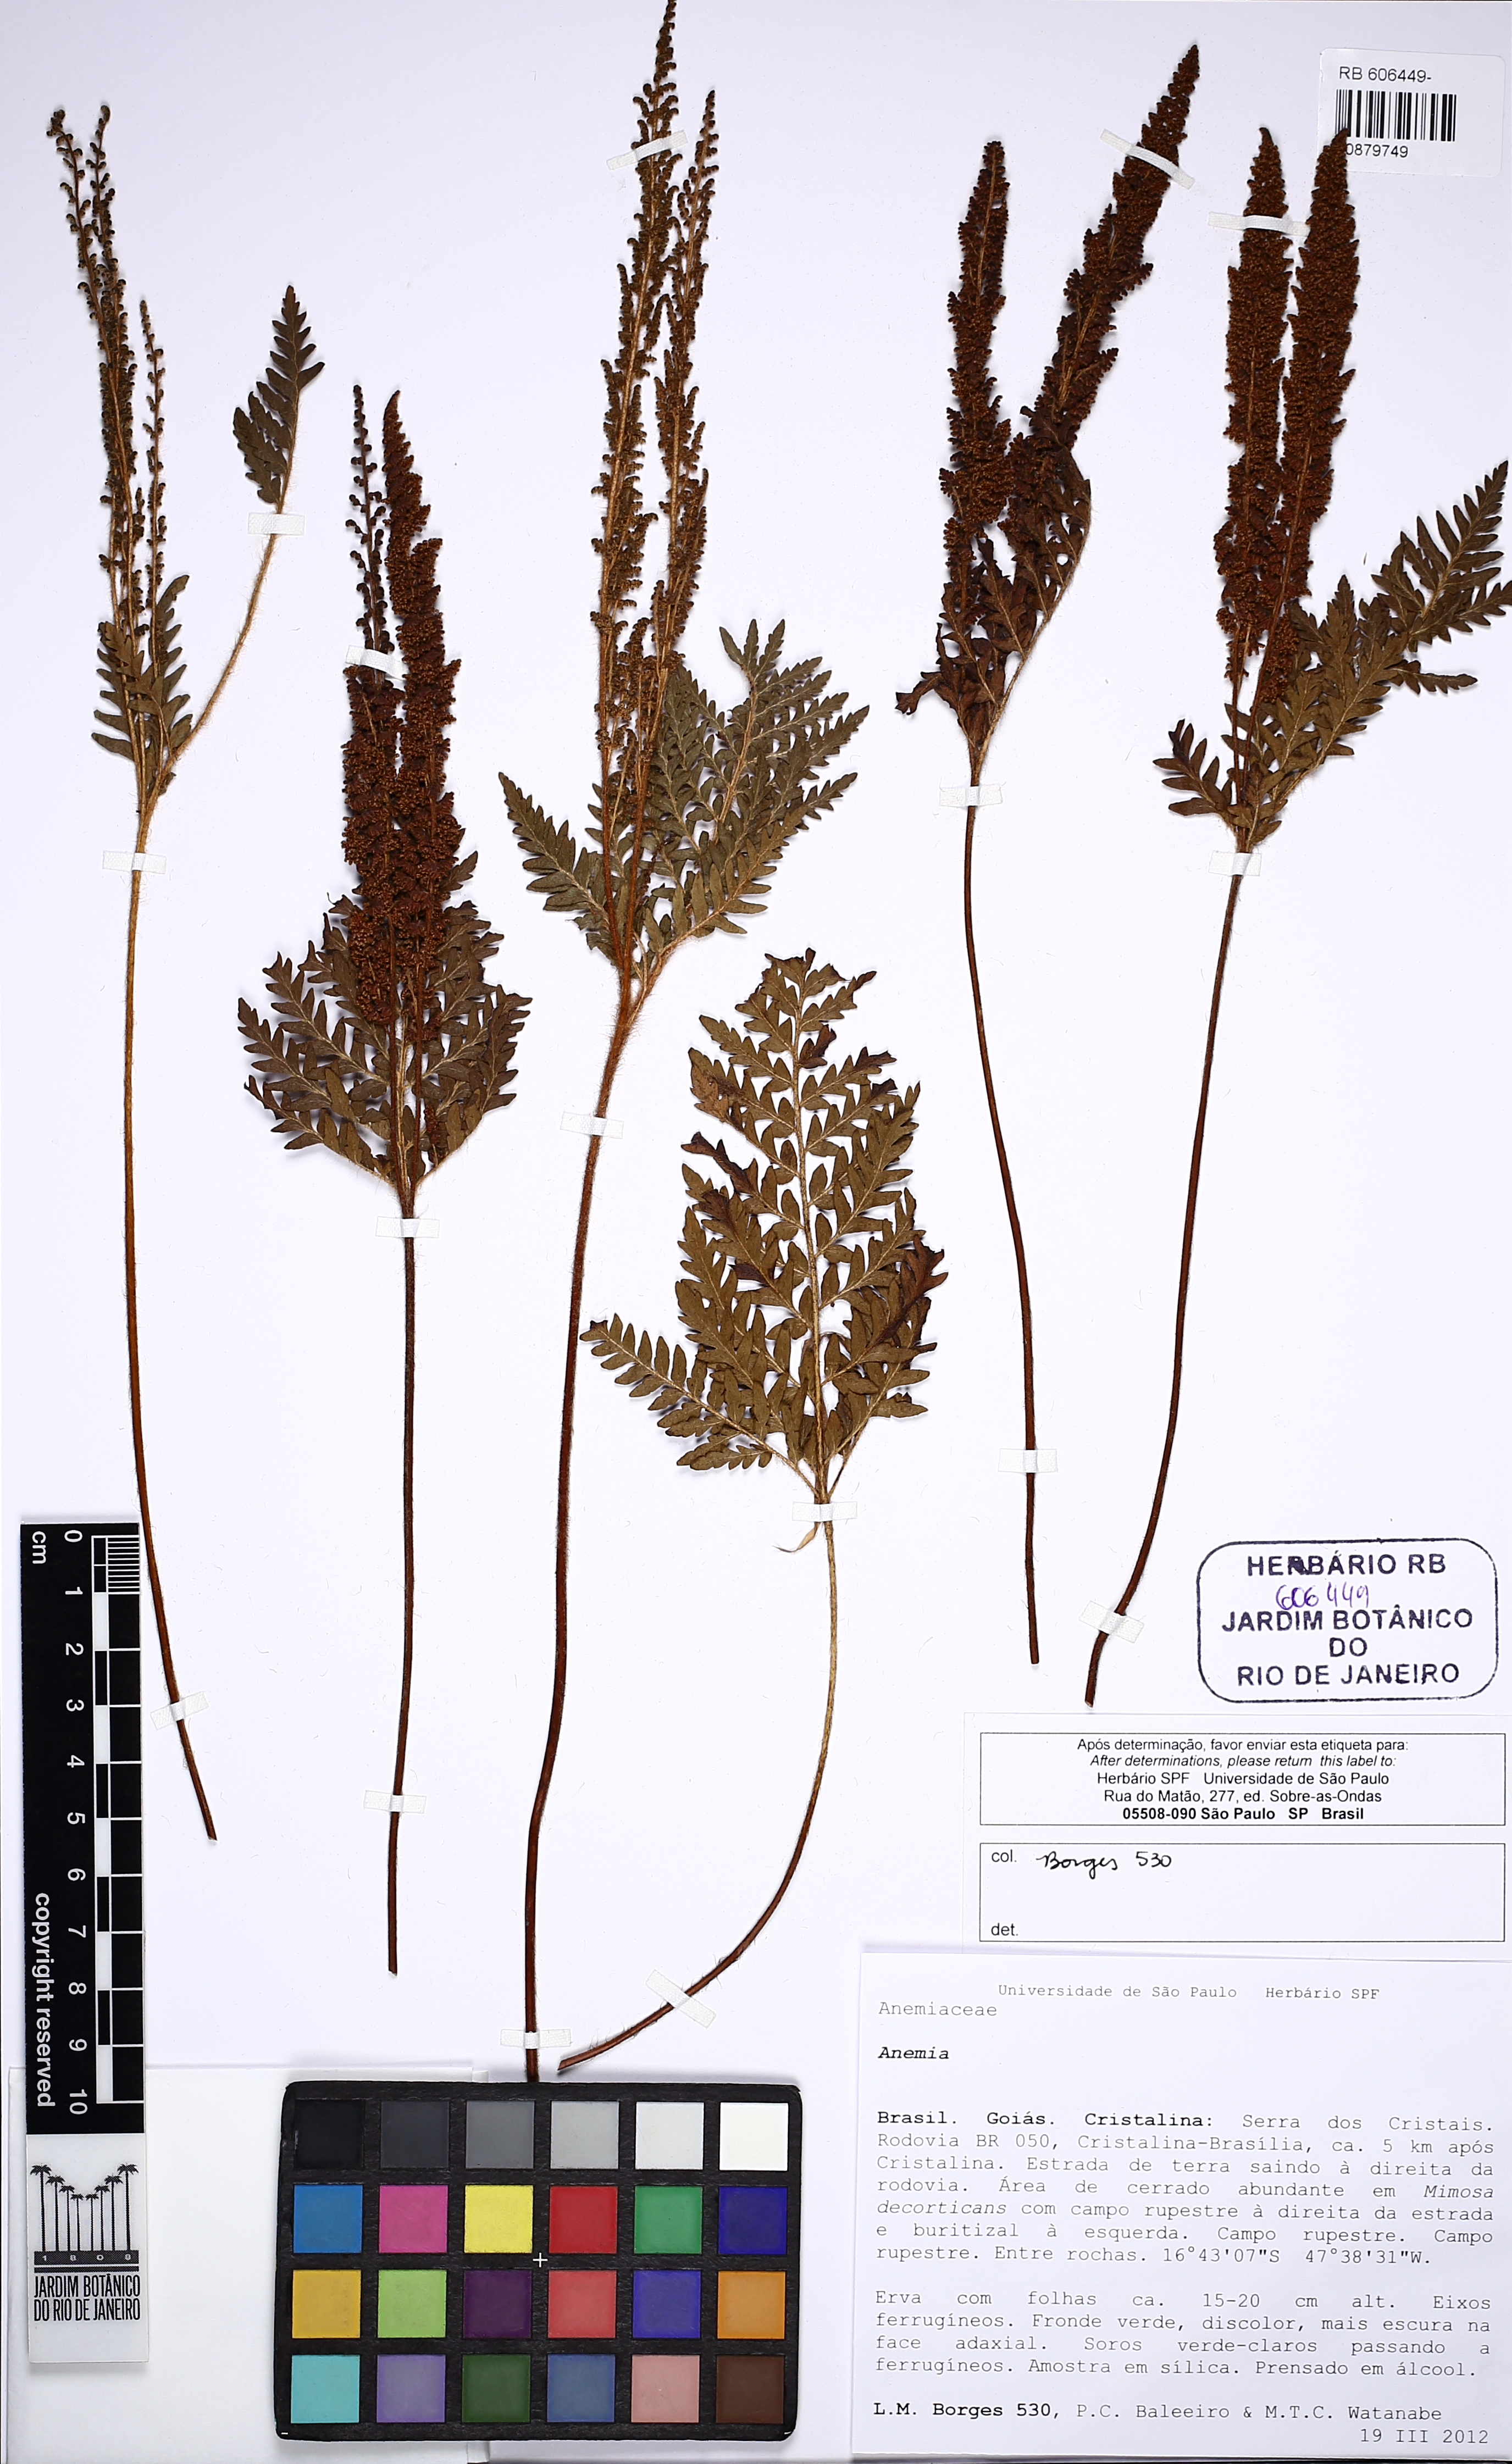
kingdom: Plantae
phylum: Tracheophyta
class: Polypodiopsida
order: Schizaeales
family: Anemiaceae
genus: Anemia
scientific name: Anemia tomentosa
